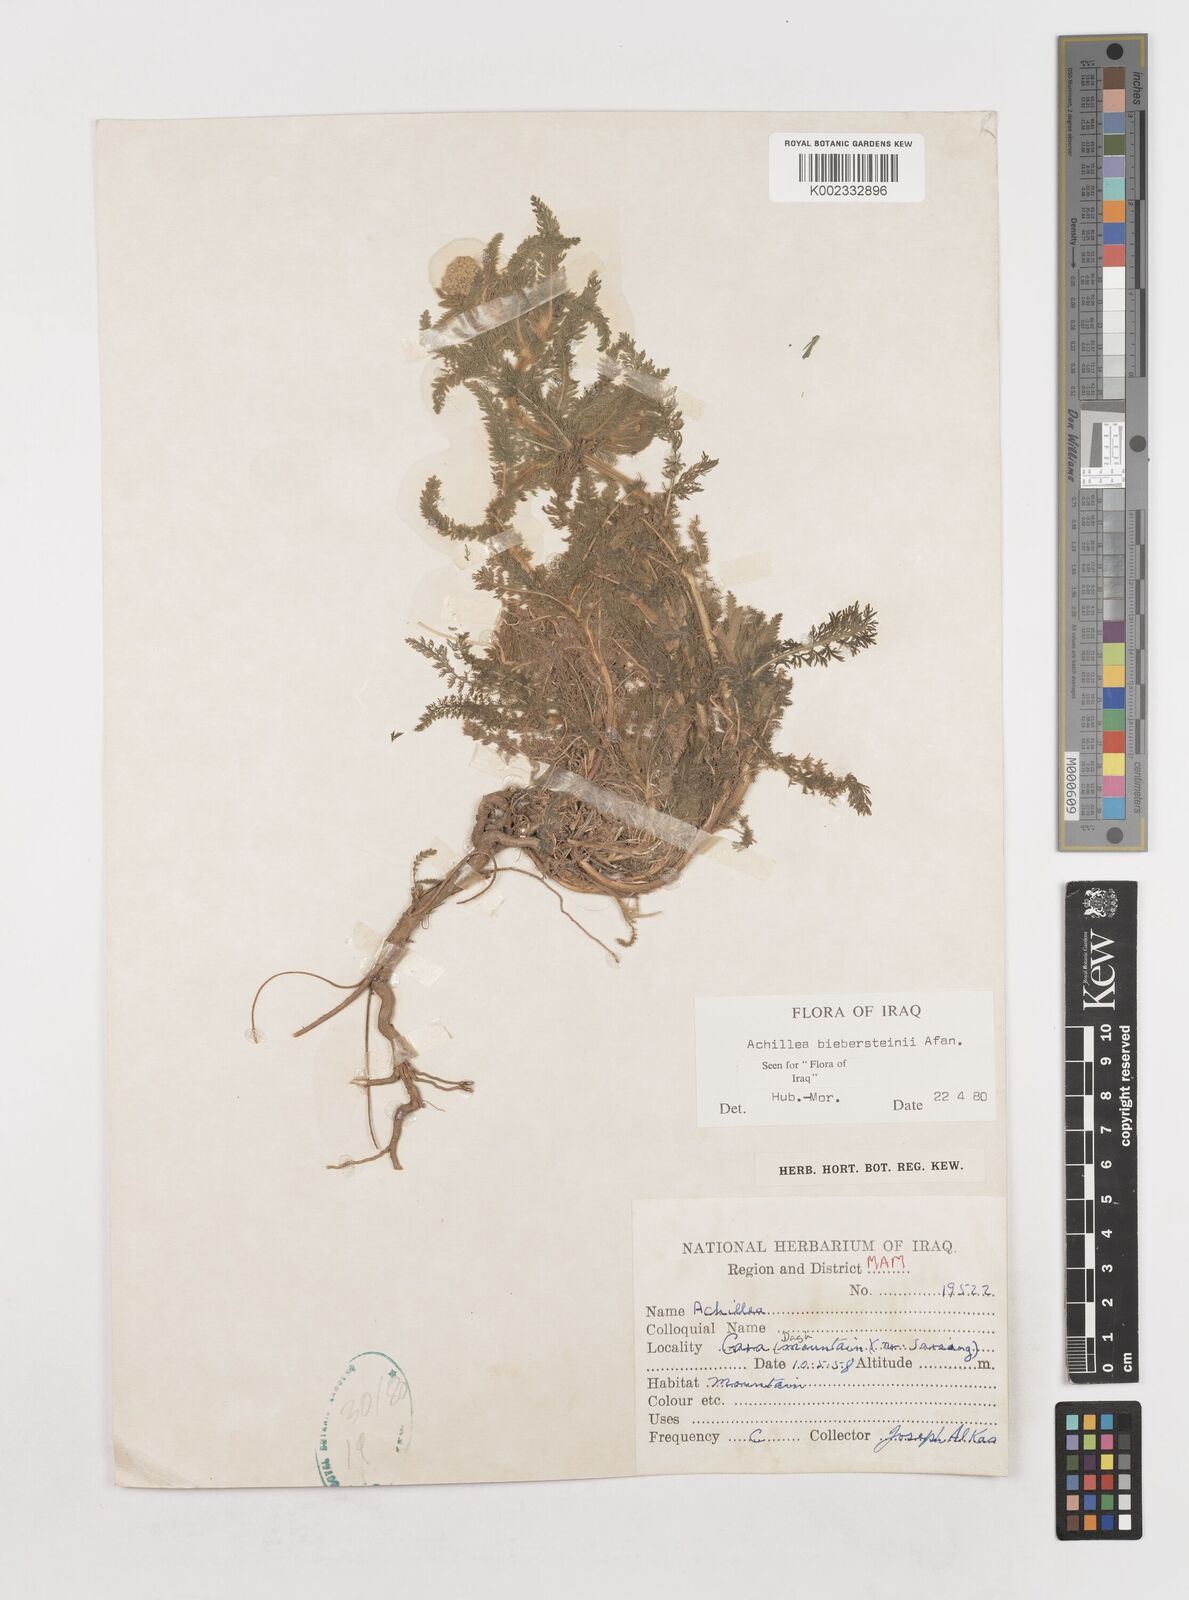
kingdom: Plantae
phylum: Tracheophyta
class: Magnoliopsida
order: Asterales
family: Asteraceae
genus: Achillea
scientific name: Achillea arabica
